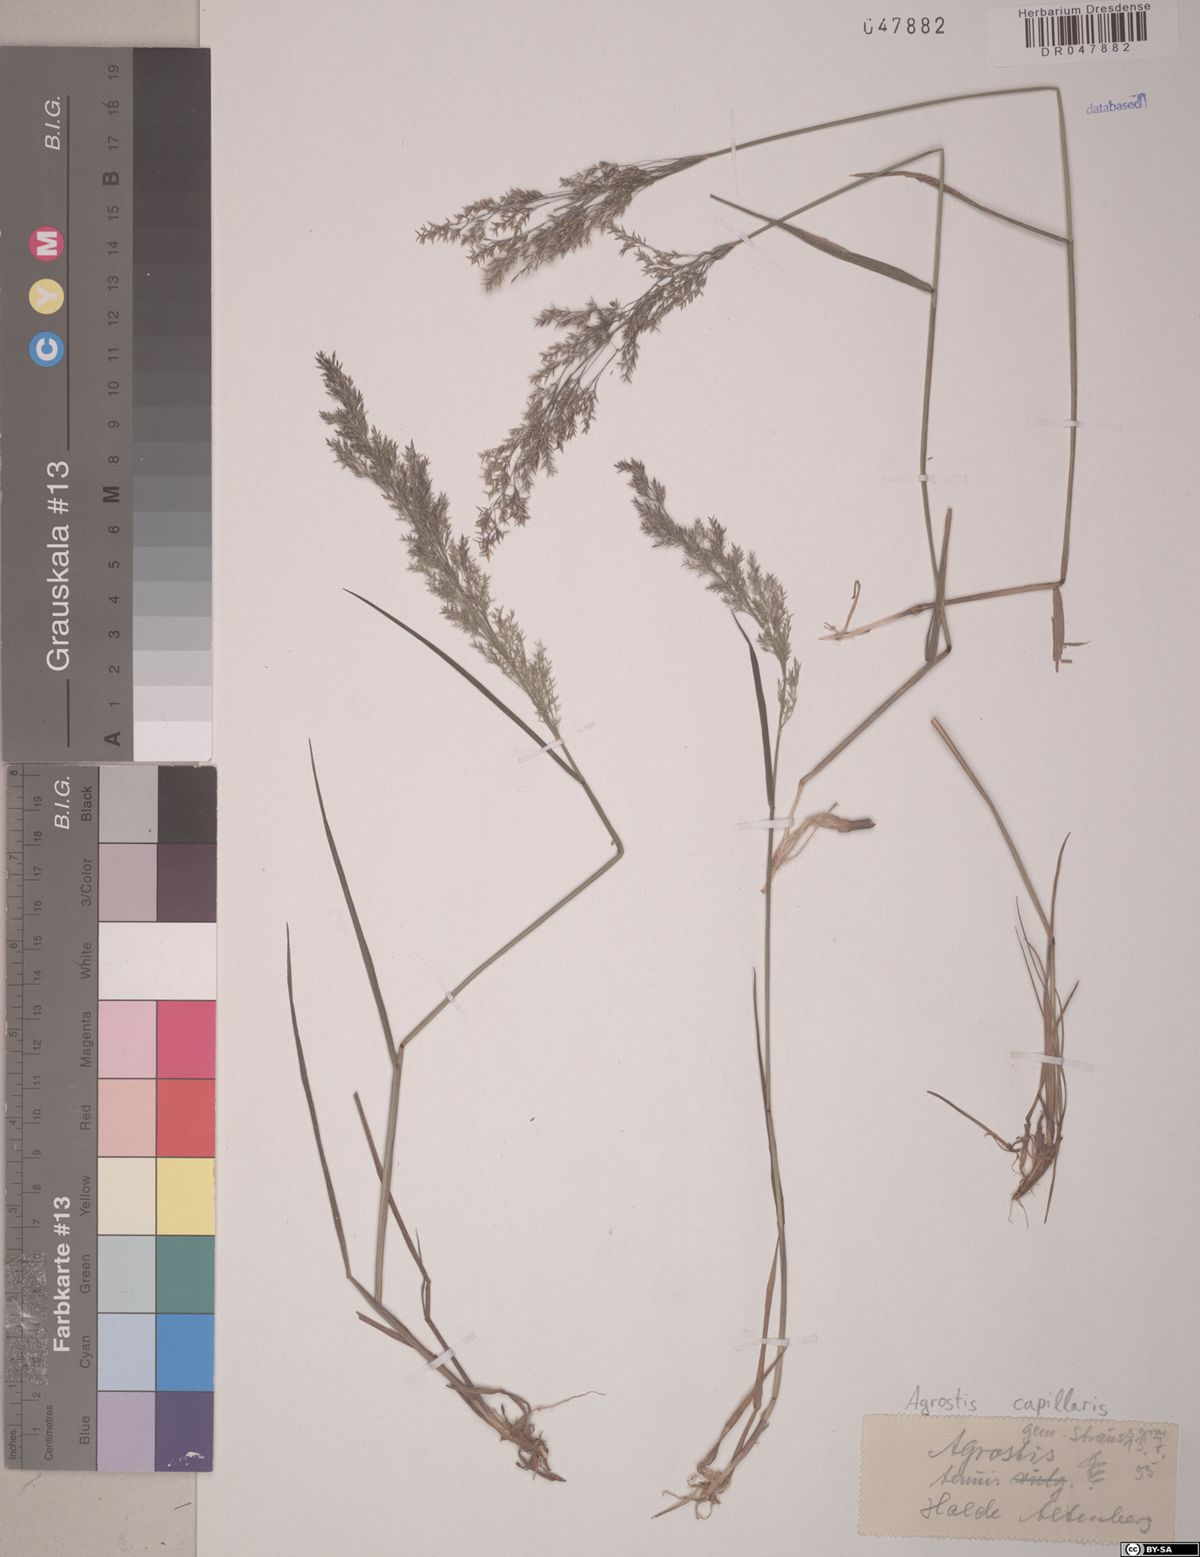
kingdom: Plantae
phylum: Tracheophyta
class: Liliopsida
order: Poales
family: Poaceae
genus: Agrostis
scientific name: Agrostis capillaris
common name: Colonial bentgrass
